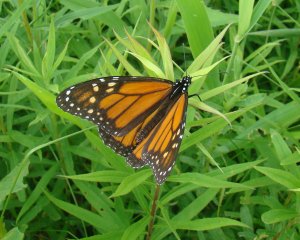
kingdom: Animalia
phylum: Arthropoda
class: Insecta
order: Lepidoptera
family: Nymphalidae
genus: Danaus
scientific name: Danaus plexippus
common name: Monarch
